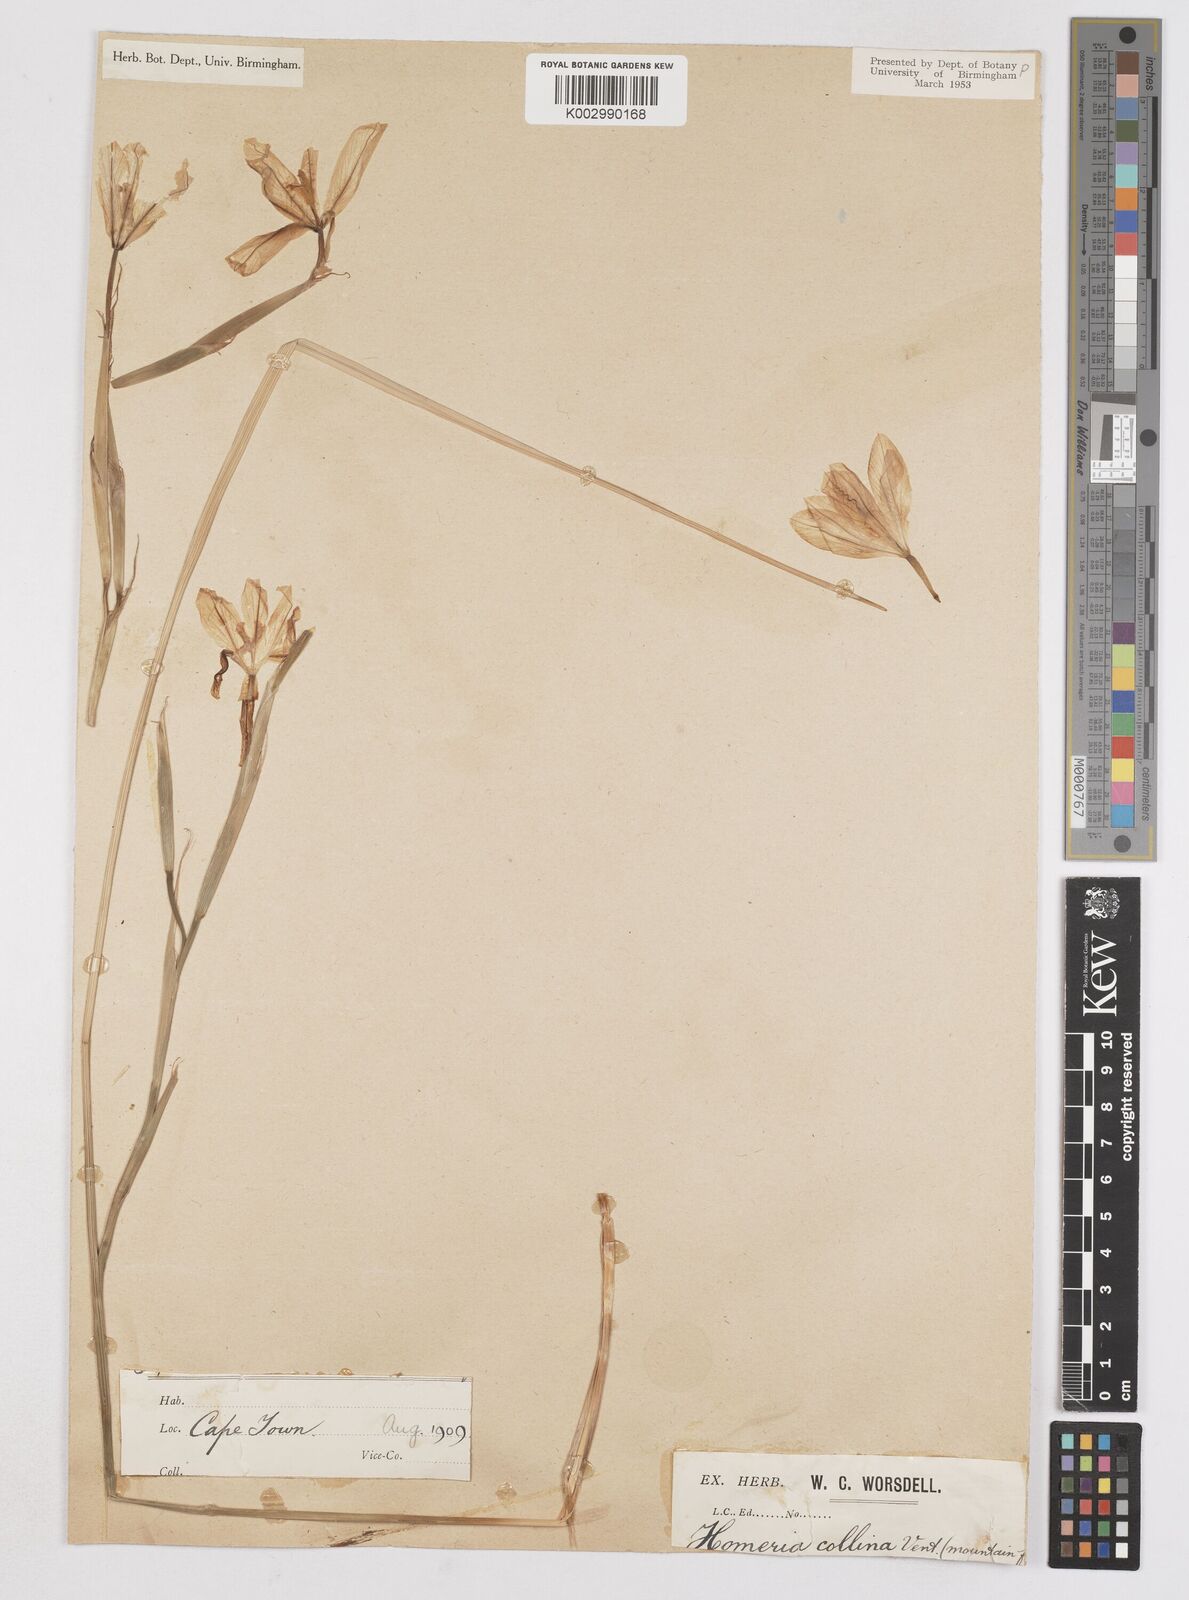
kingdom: Plantae
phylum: Tracheophyta
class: Liliopsida
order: Asparagales
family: Iridaceae
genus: Moraea
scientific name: Moraea collina
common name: Cape-tulip
